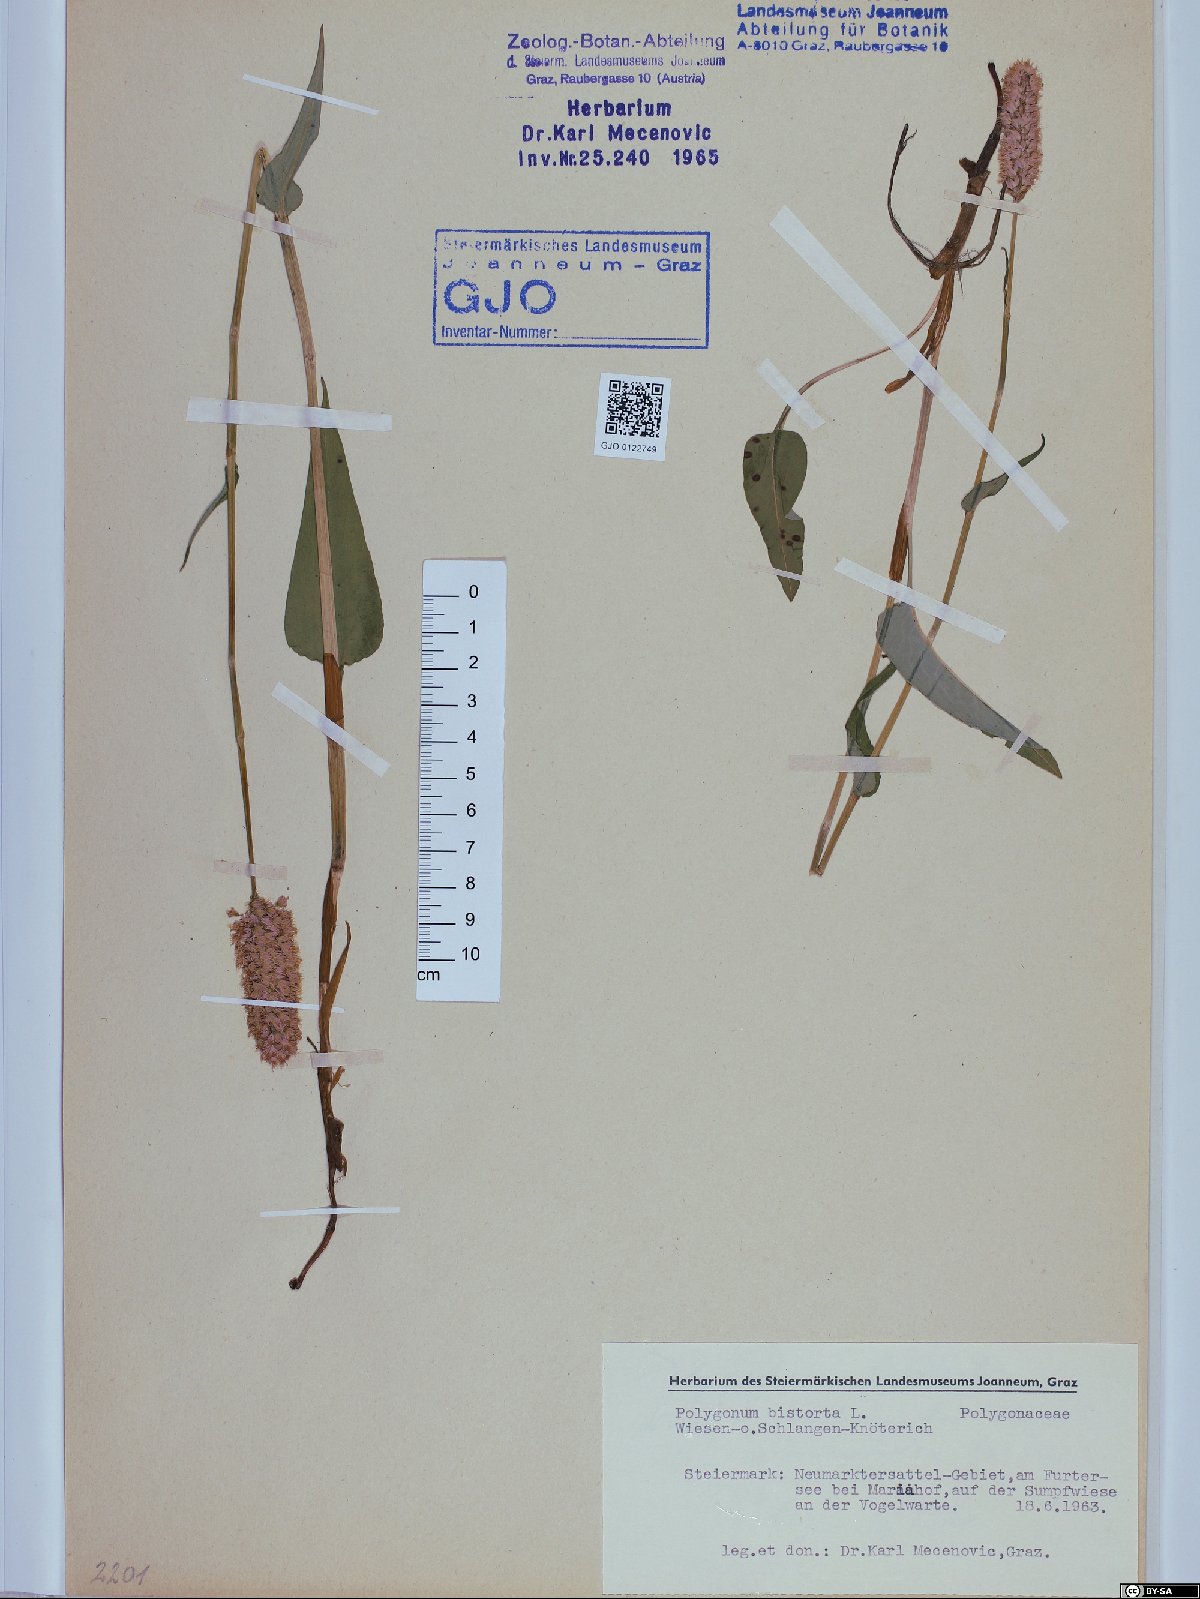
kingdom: Plantae
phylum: Tracheophyta
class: Magnoliopsida
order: Caryophyllales
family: Polygonaceae
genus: Bistorta
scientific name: Bistorta officinalis
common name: Common bistort
